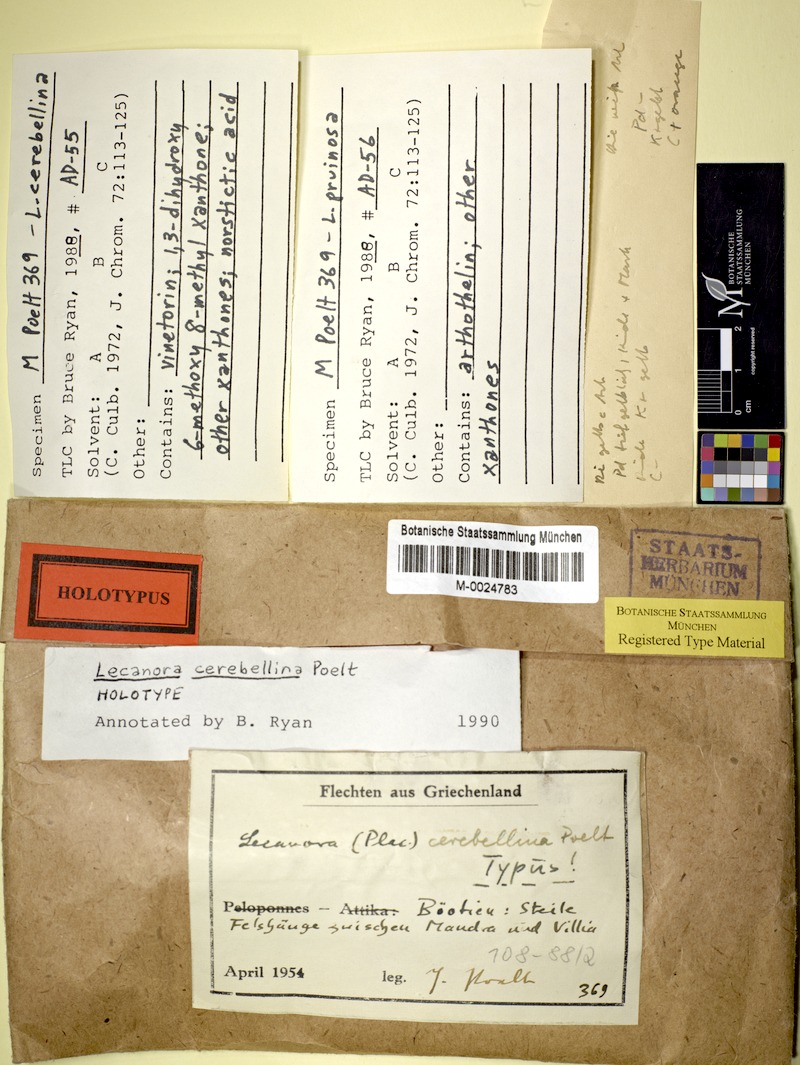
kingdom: Fungi
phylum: Ascomycota
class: Lecanoromycetes
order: Lecanorales
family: Lecanoraceae
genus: Lecanora
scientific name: Lecanora
